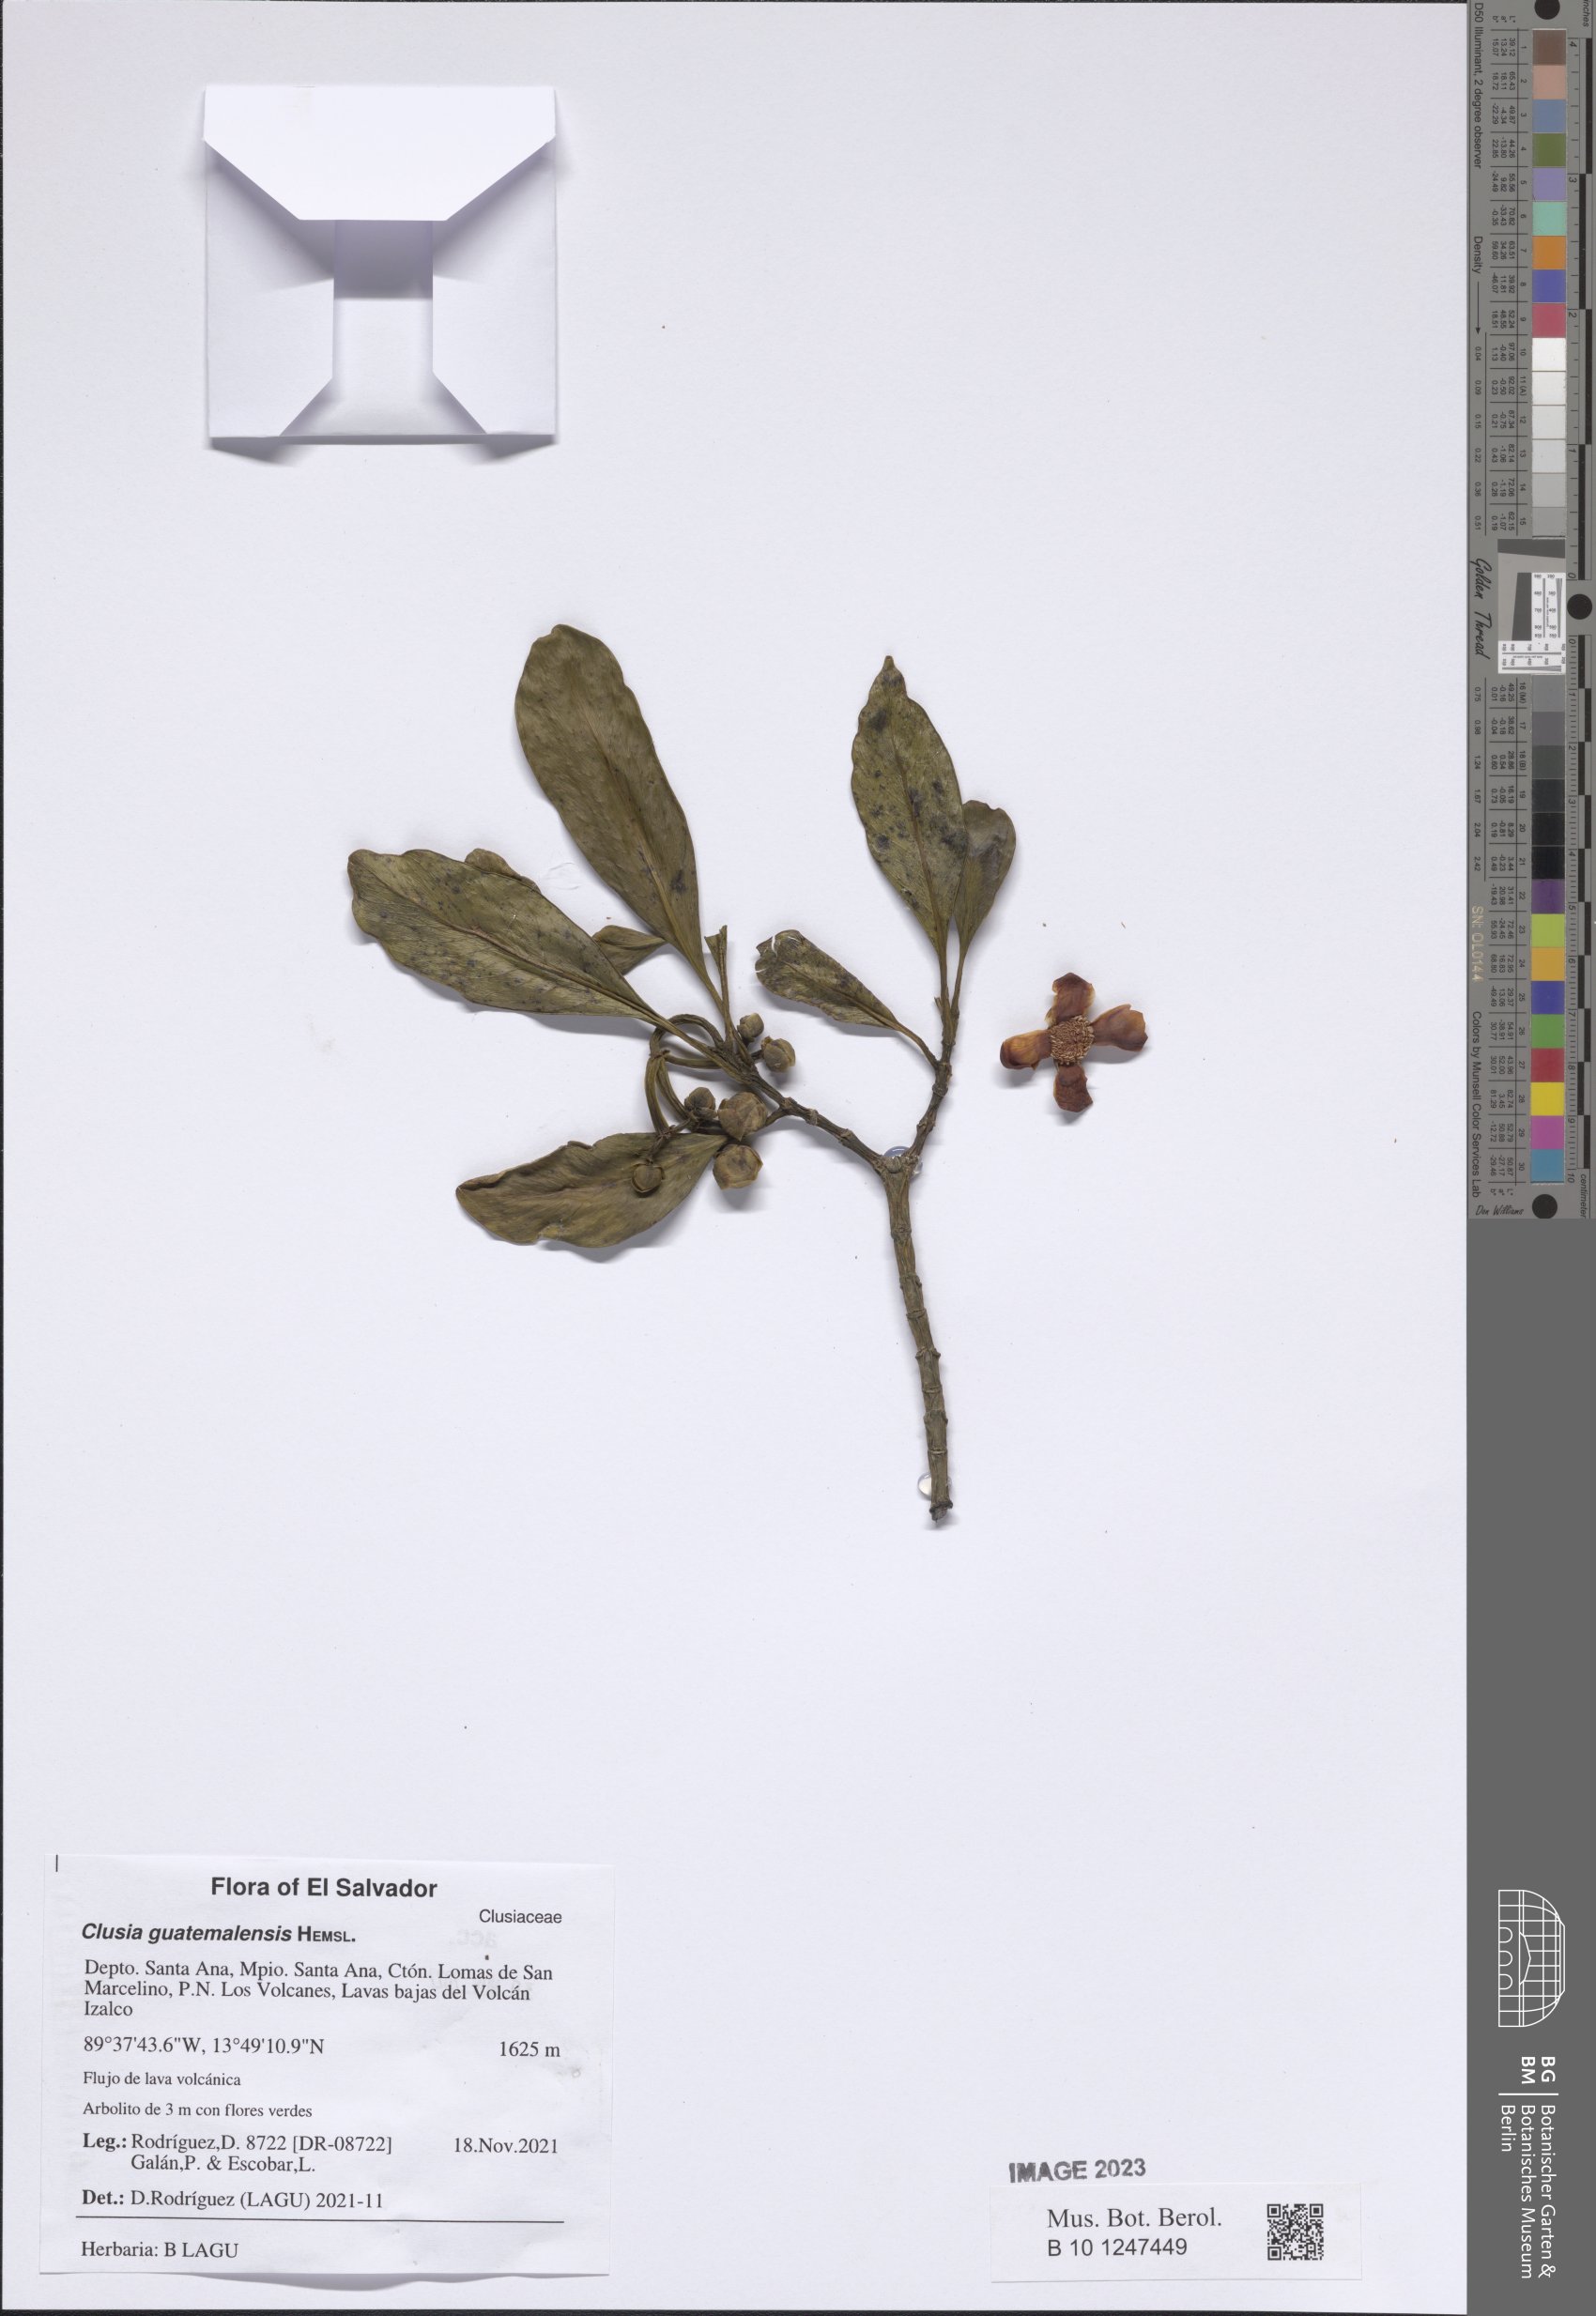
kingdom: Plantae
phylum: Tracheophyta
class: Magnoliopsida
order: Malpighiales
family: Clusiaceae
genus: Clusia
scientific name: Clusia guatemalensis
